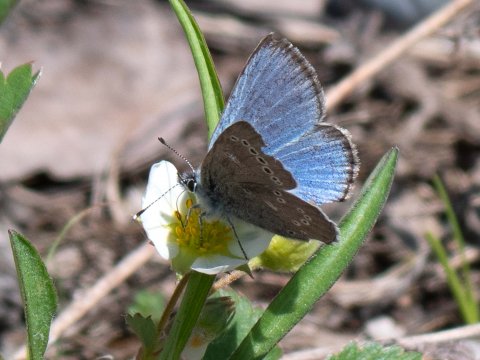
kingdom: Animalia
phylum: Arthropoda
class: Insecta
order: Lepidoptera
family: Lycaenidae
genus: Glaucopsyche
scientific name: Glaucopsyche lygdamus
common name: Silvery Blue
